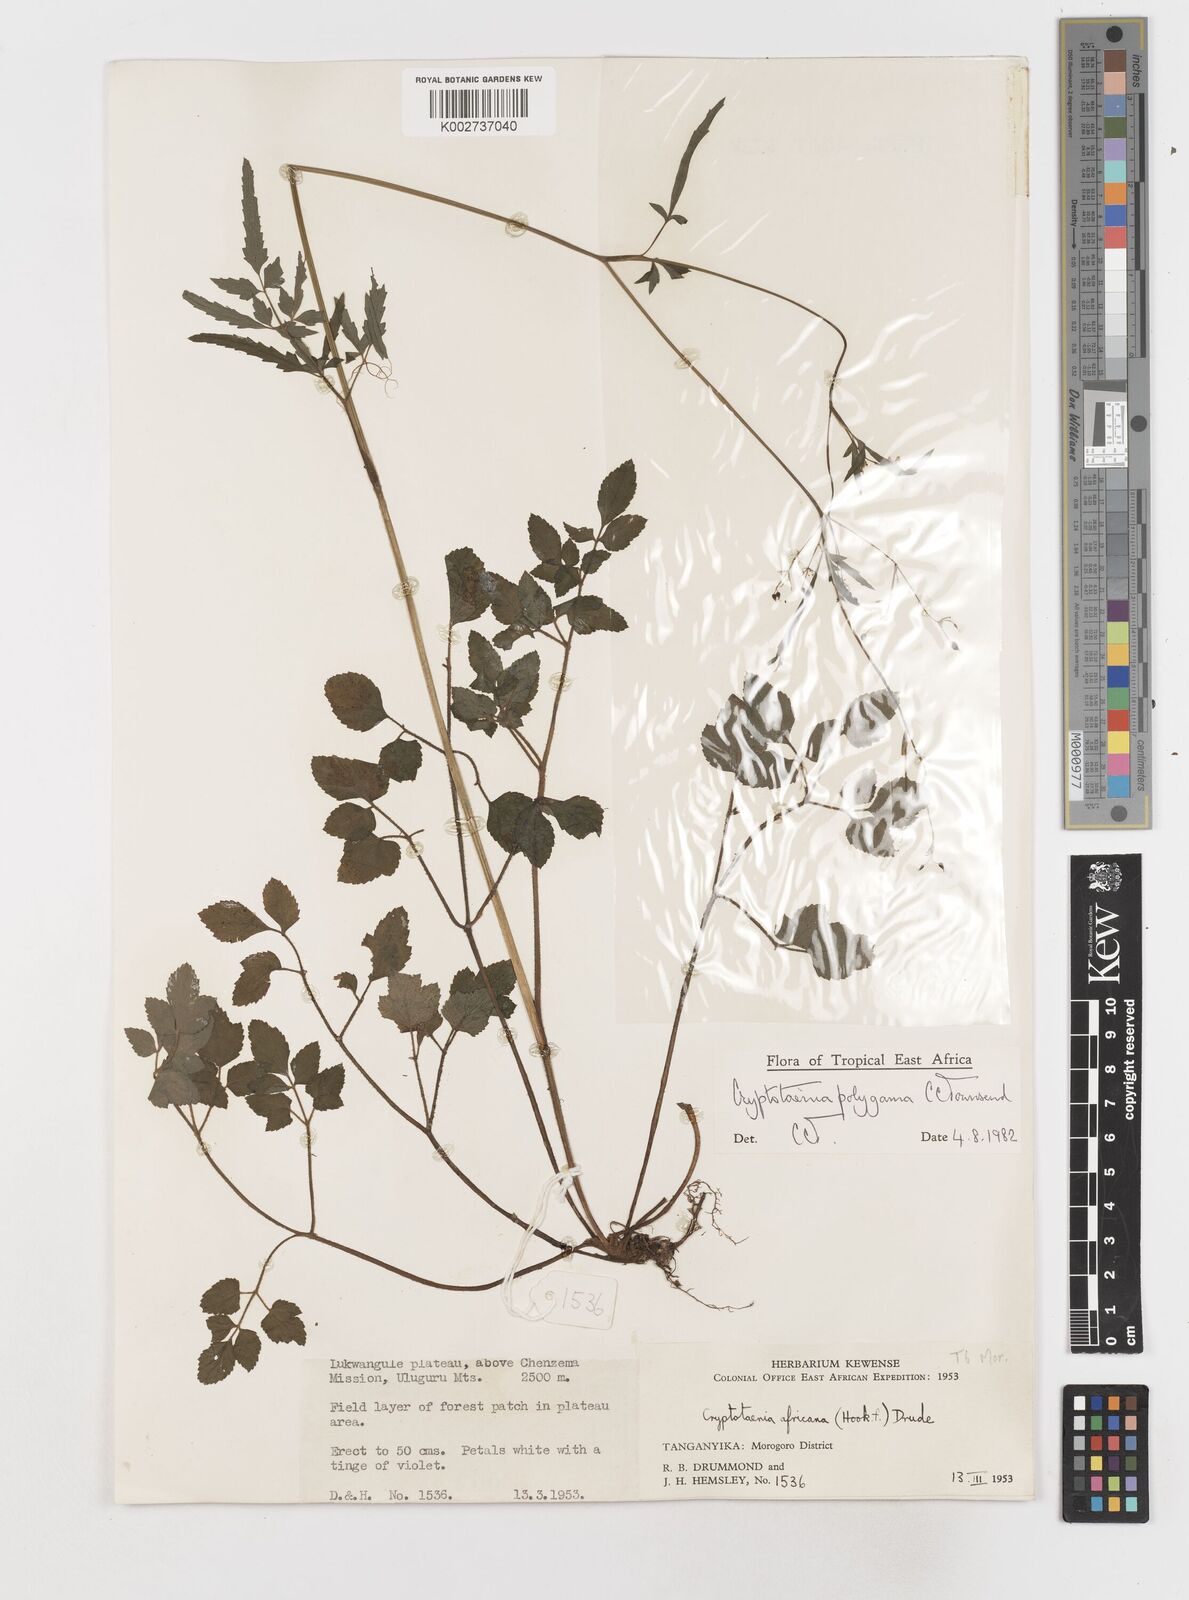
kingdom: Plantae
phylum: Tracheophyta
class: Magnoliopsida
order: Apiales
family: Apiaceae
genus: Cryptotaenia
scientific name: Cryptotaenia polygama
